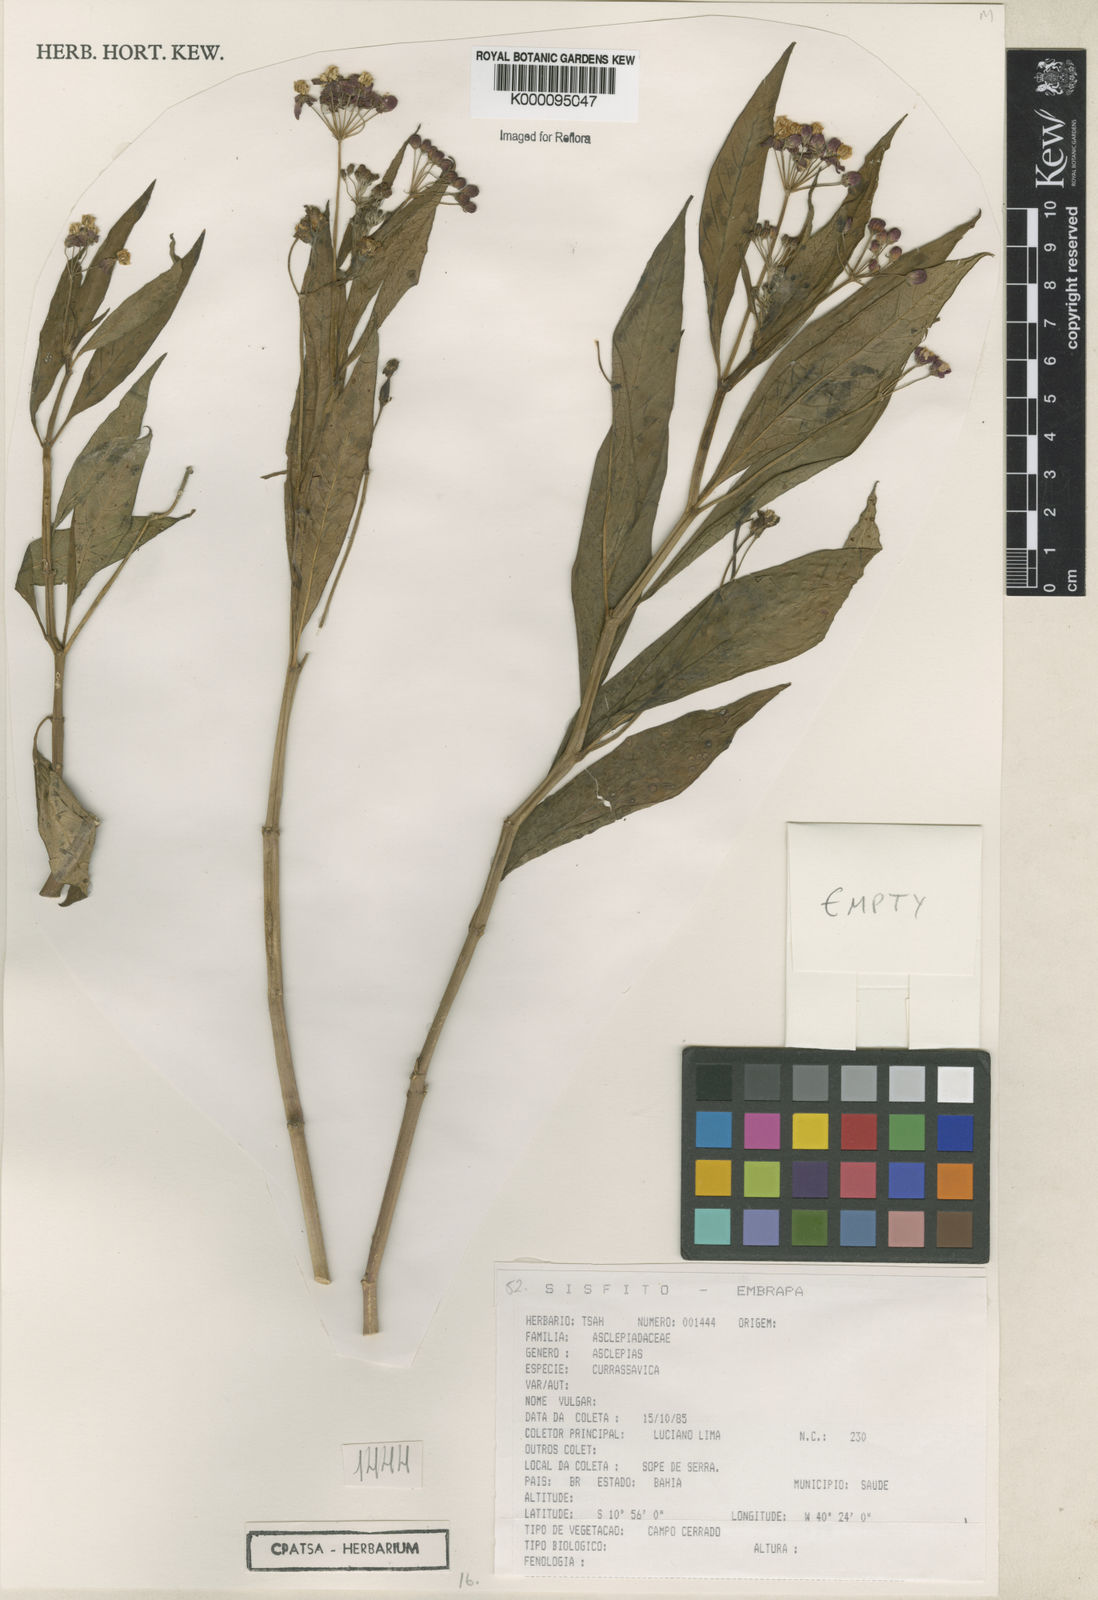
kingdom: Plantae
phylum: Tracheophyta
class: Magnoliopsida
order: Gentianales
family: Apocynaceae
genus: Asclepias
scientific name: Asclepias curassavica
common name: Bloodflower
